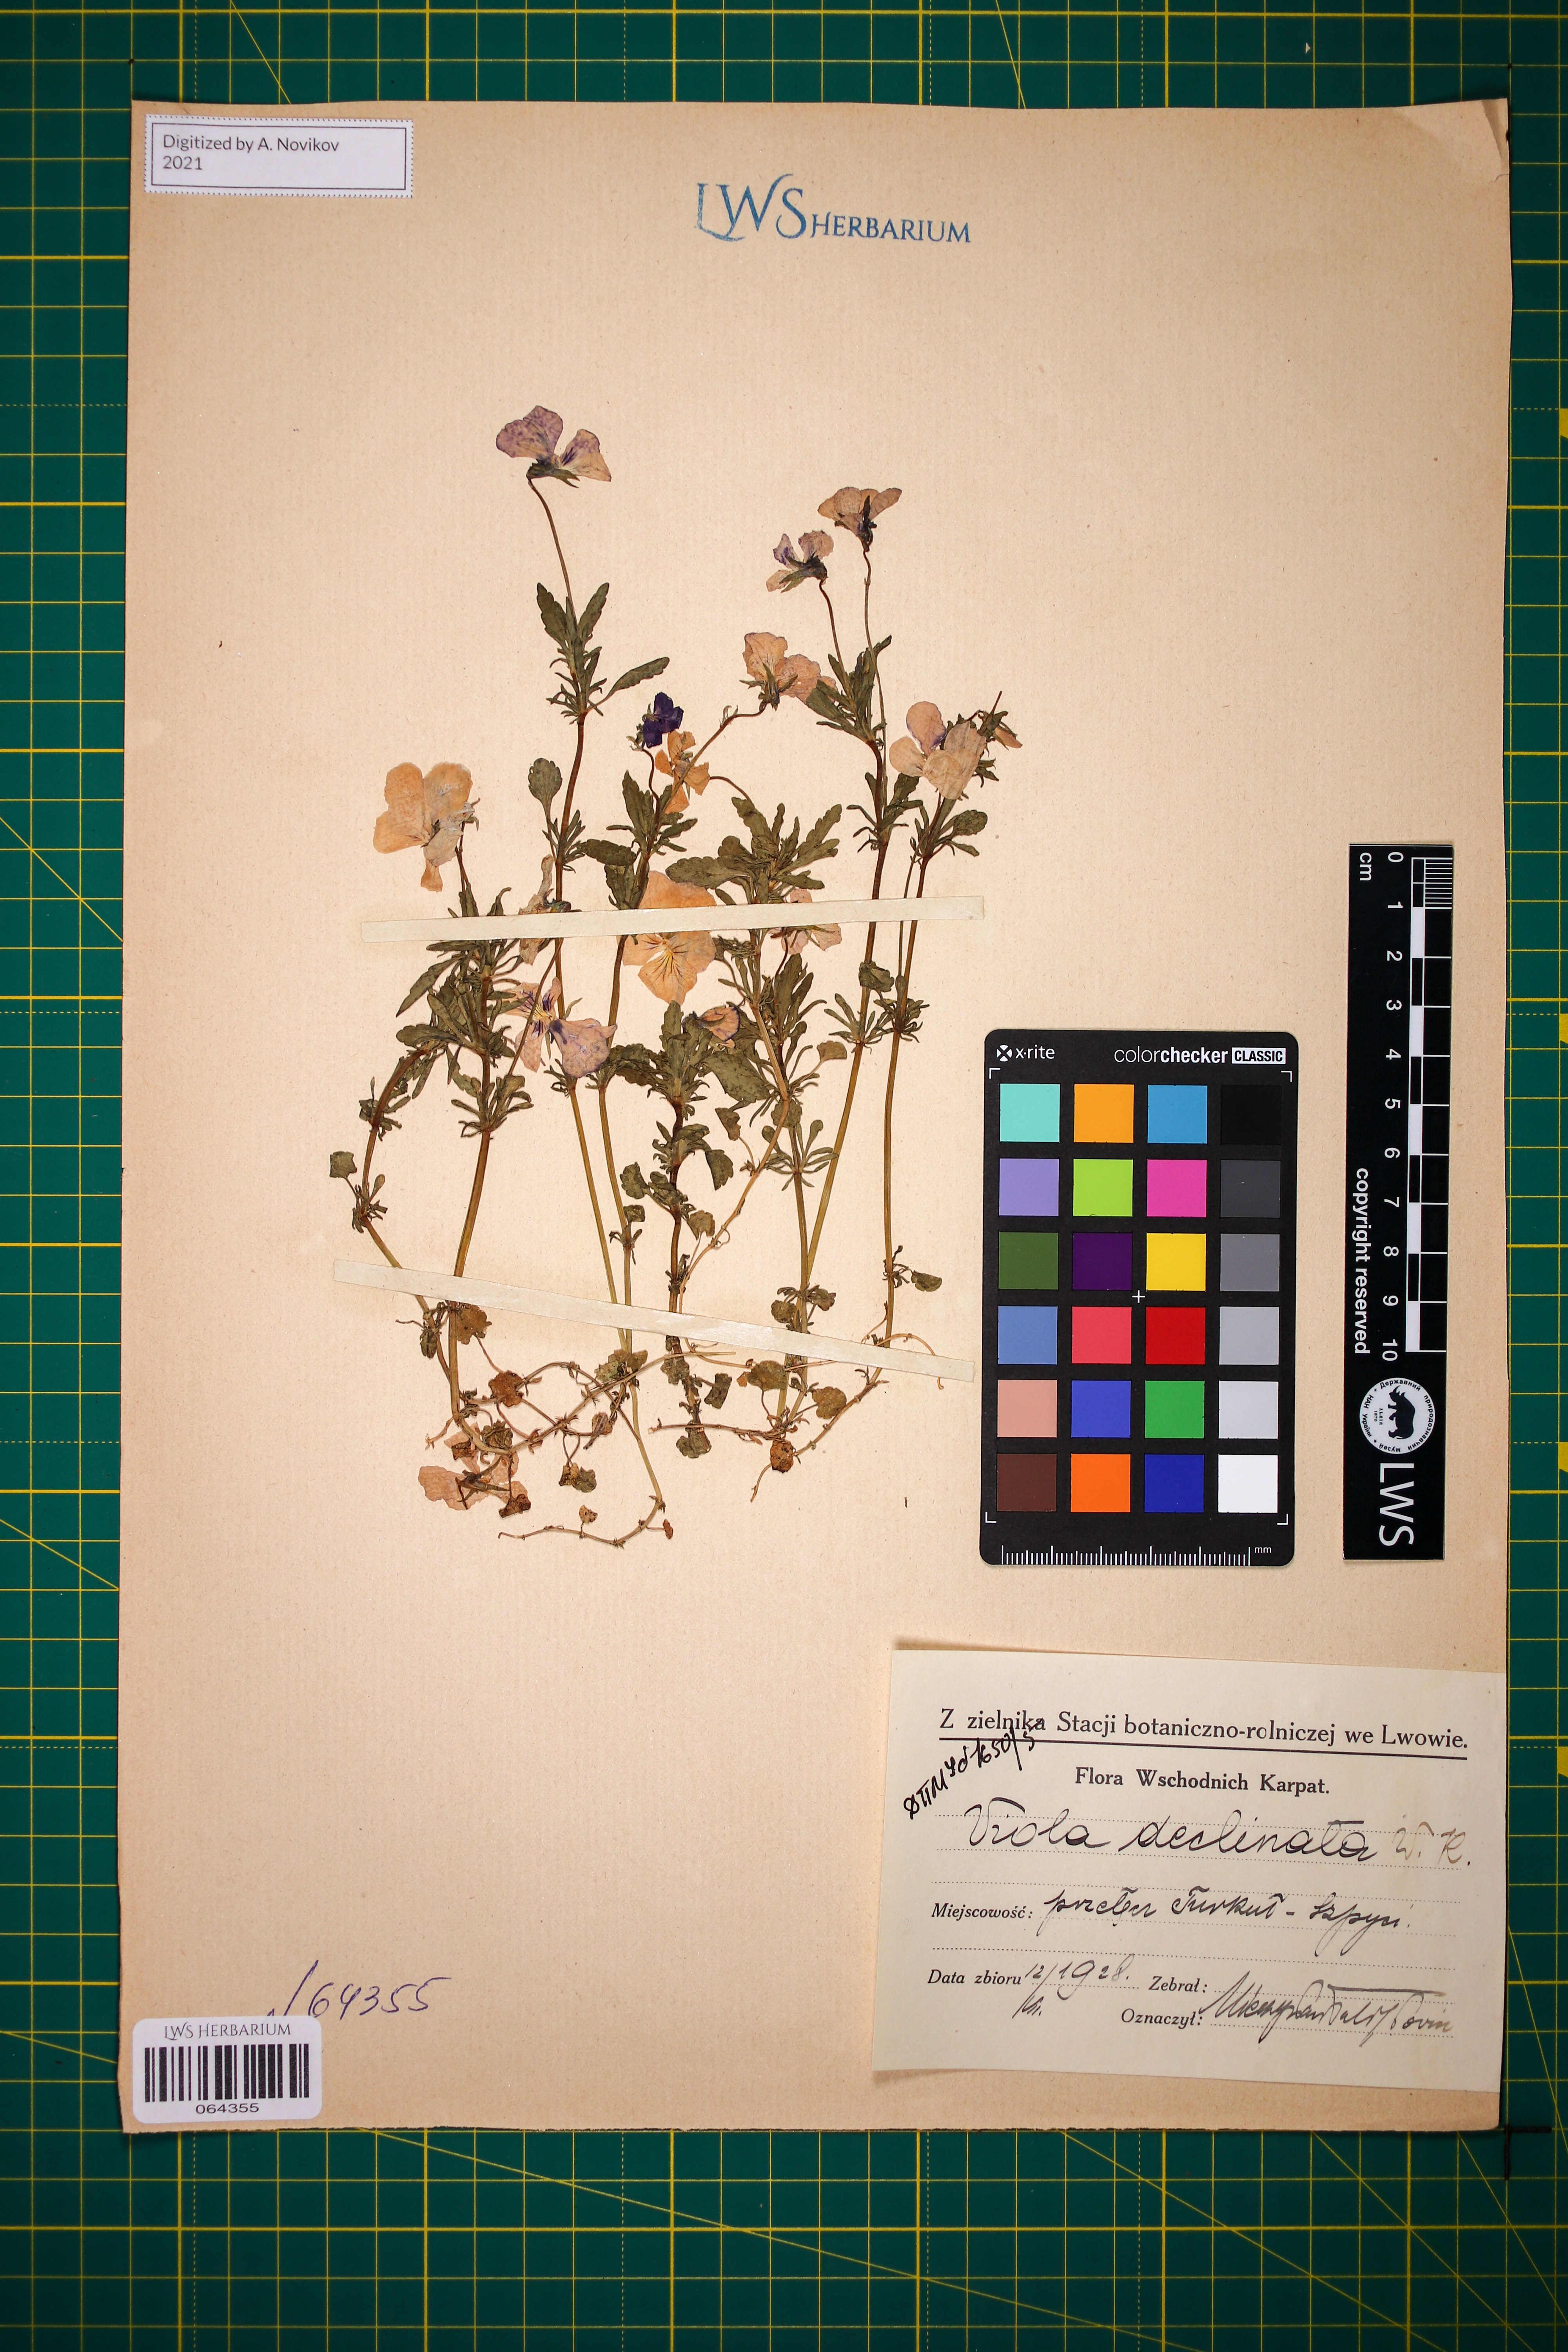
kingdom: Plantae
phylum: Tracheophyta
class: Magnoliopsida
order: Malpighiales
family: Violaceae
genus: Viola
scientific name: Viola declinata
